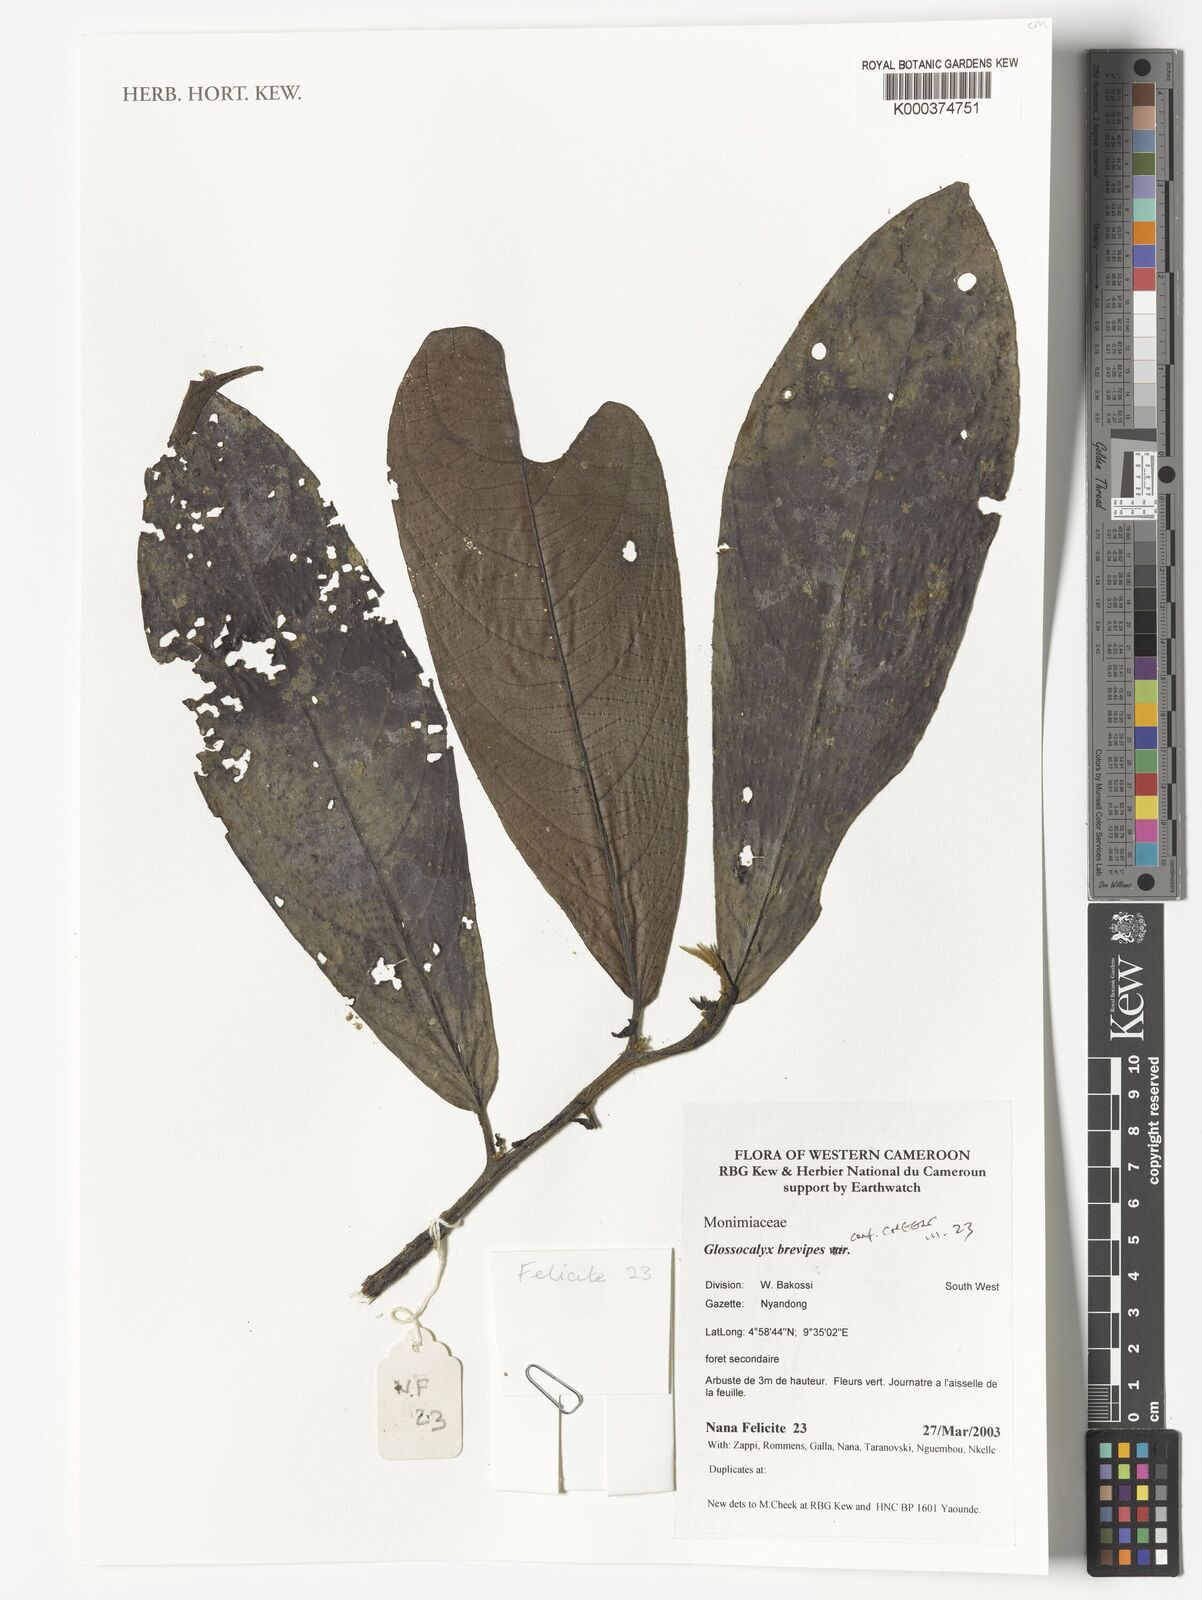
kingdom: Plantae
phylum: Tracheophyta
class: Magnoliopsida
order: Laurales
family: Siparunaceae
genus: Glossocalyx
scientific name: Glossocalyx brevipes
